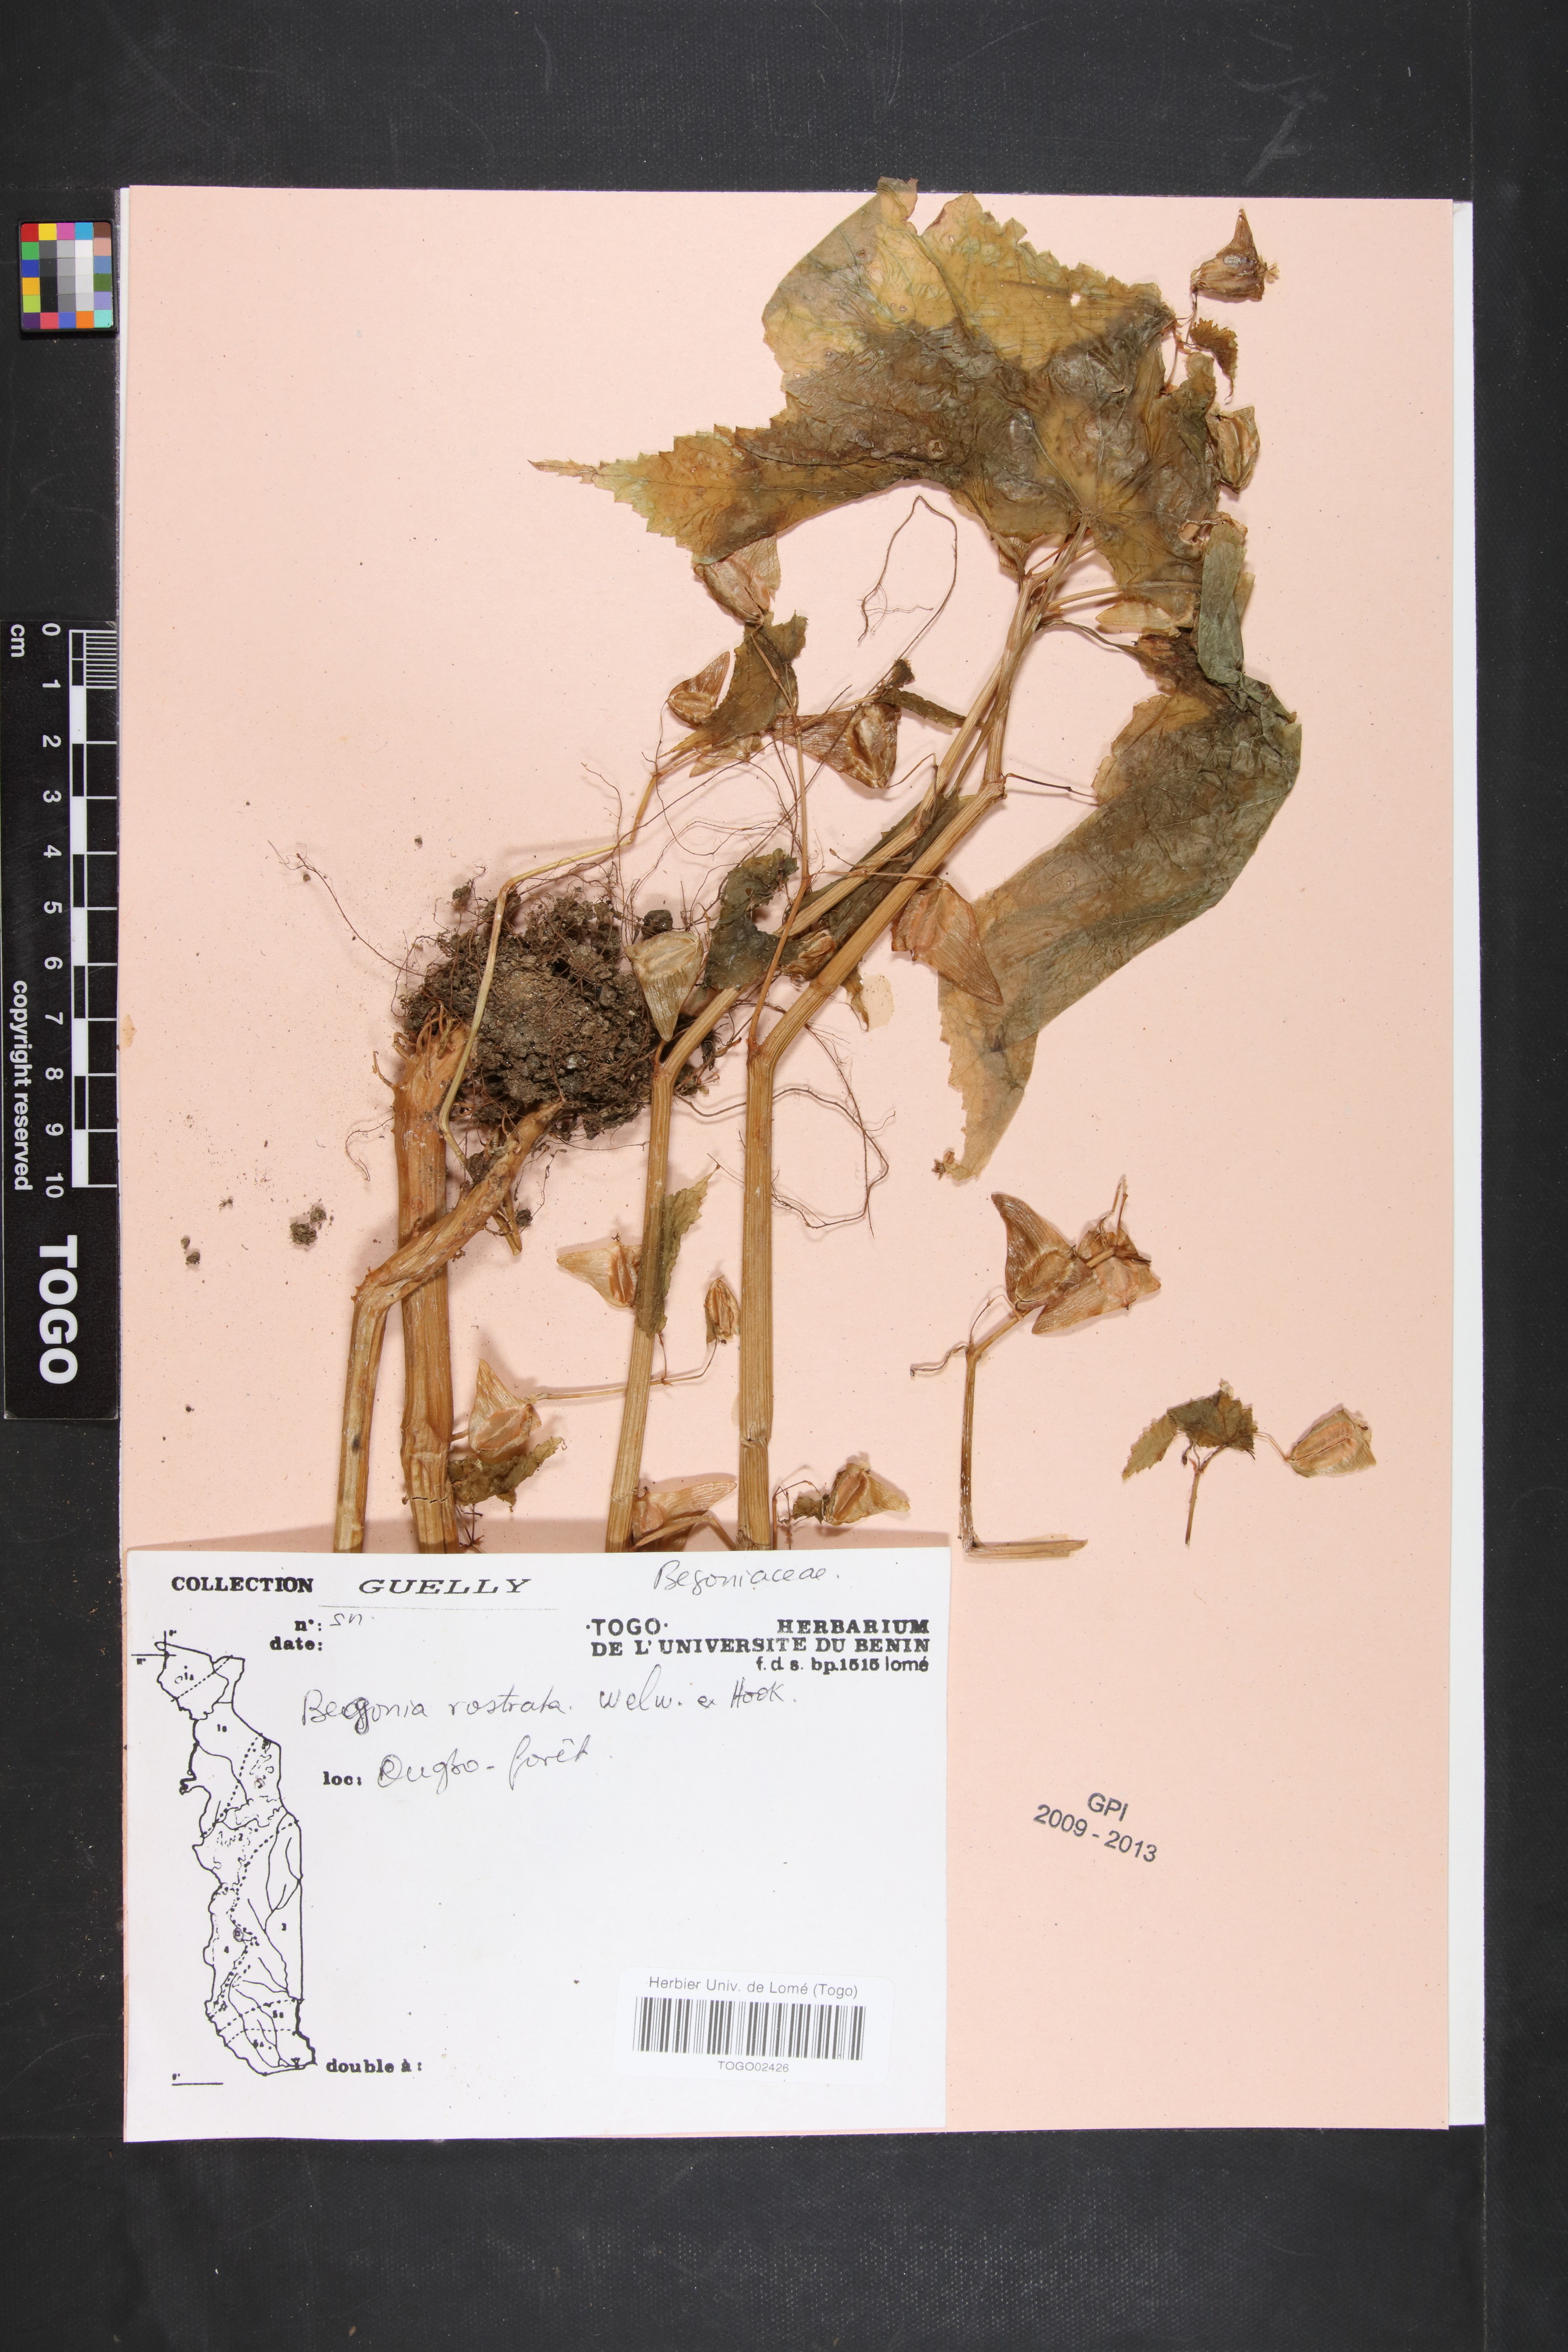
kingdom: Plantae
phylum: Tracheophyta
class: Magnoliopsida
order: Cucurbitales
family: Begoniaceae
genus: Begonia
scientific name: Begonia rostrata
